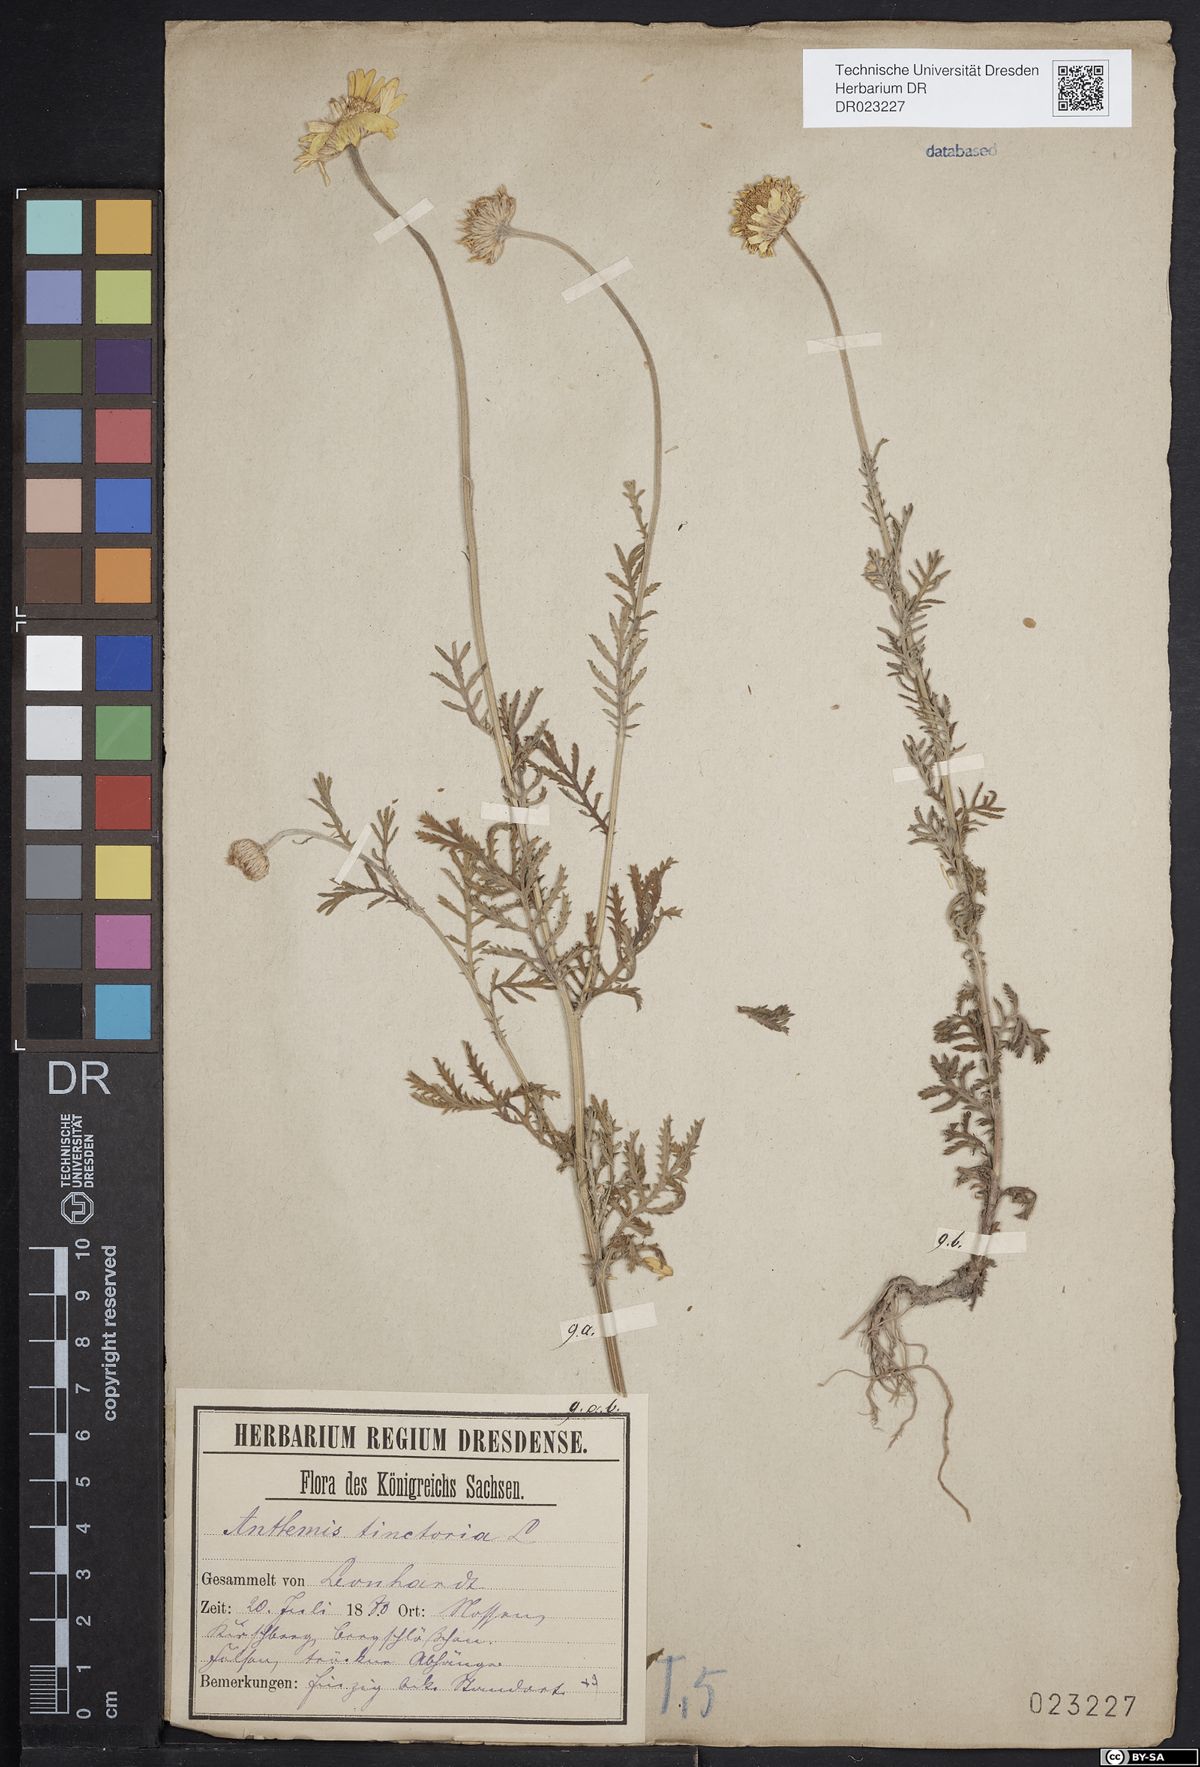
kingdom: Plantae
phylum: Tracheophyta
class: Magnoliopsida
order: Asterales
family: Asteraceae
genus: Cota
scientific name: Cota tinctoria
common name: Golden chamomile
